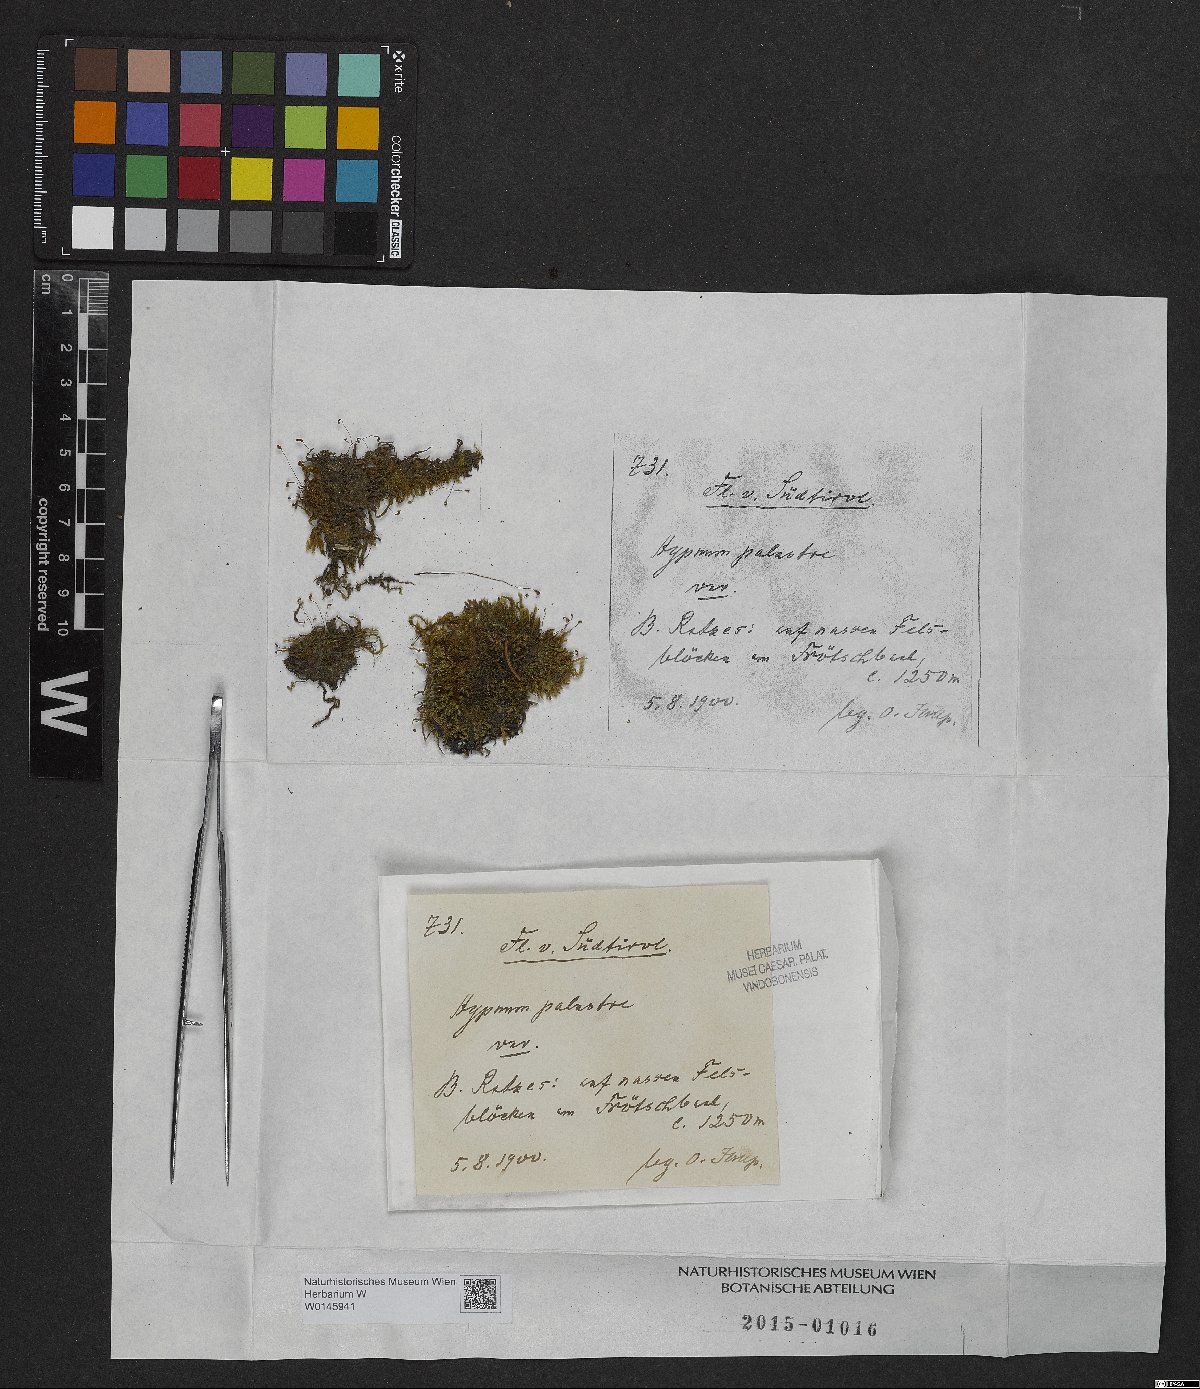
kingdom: Plantae
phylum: Bryophyta
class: Bryopsida
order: Hypnales
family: Amblystegiaceae
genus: Hygrohypnum
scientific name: Hygrohypnum luridum
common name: Drab brook moss
